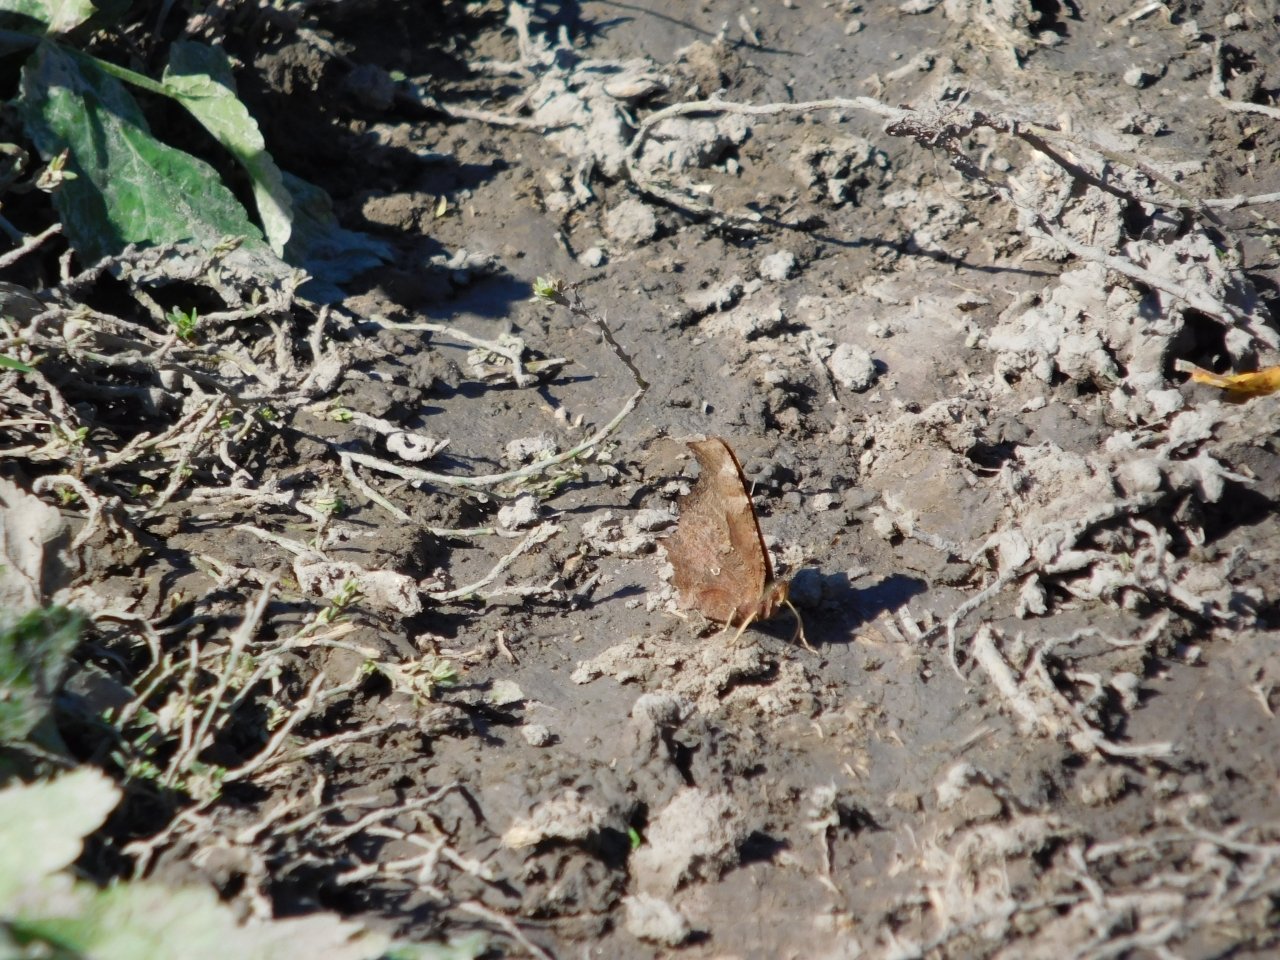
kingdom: Animalia
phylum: Arthropoda
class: Insecta
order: Lepidoptera
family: Nymphalidae
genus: Polygonia
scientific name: Polygonia comma
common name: Eastern Comma
